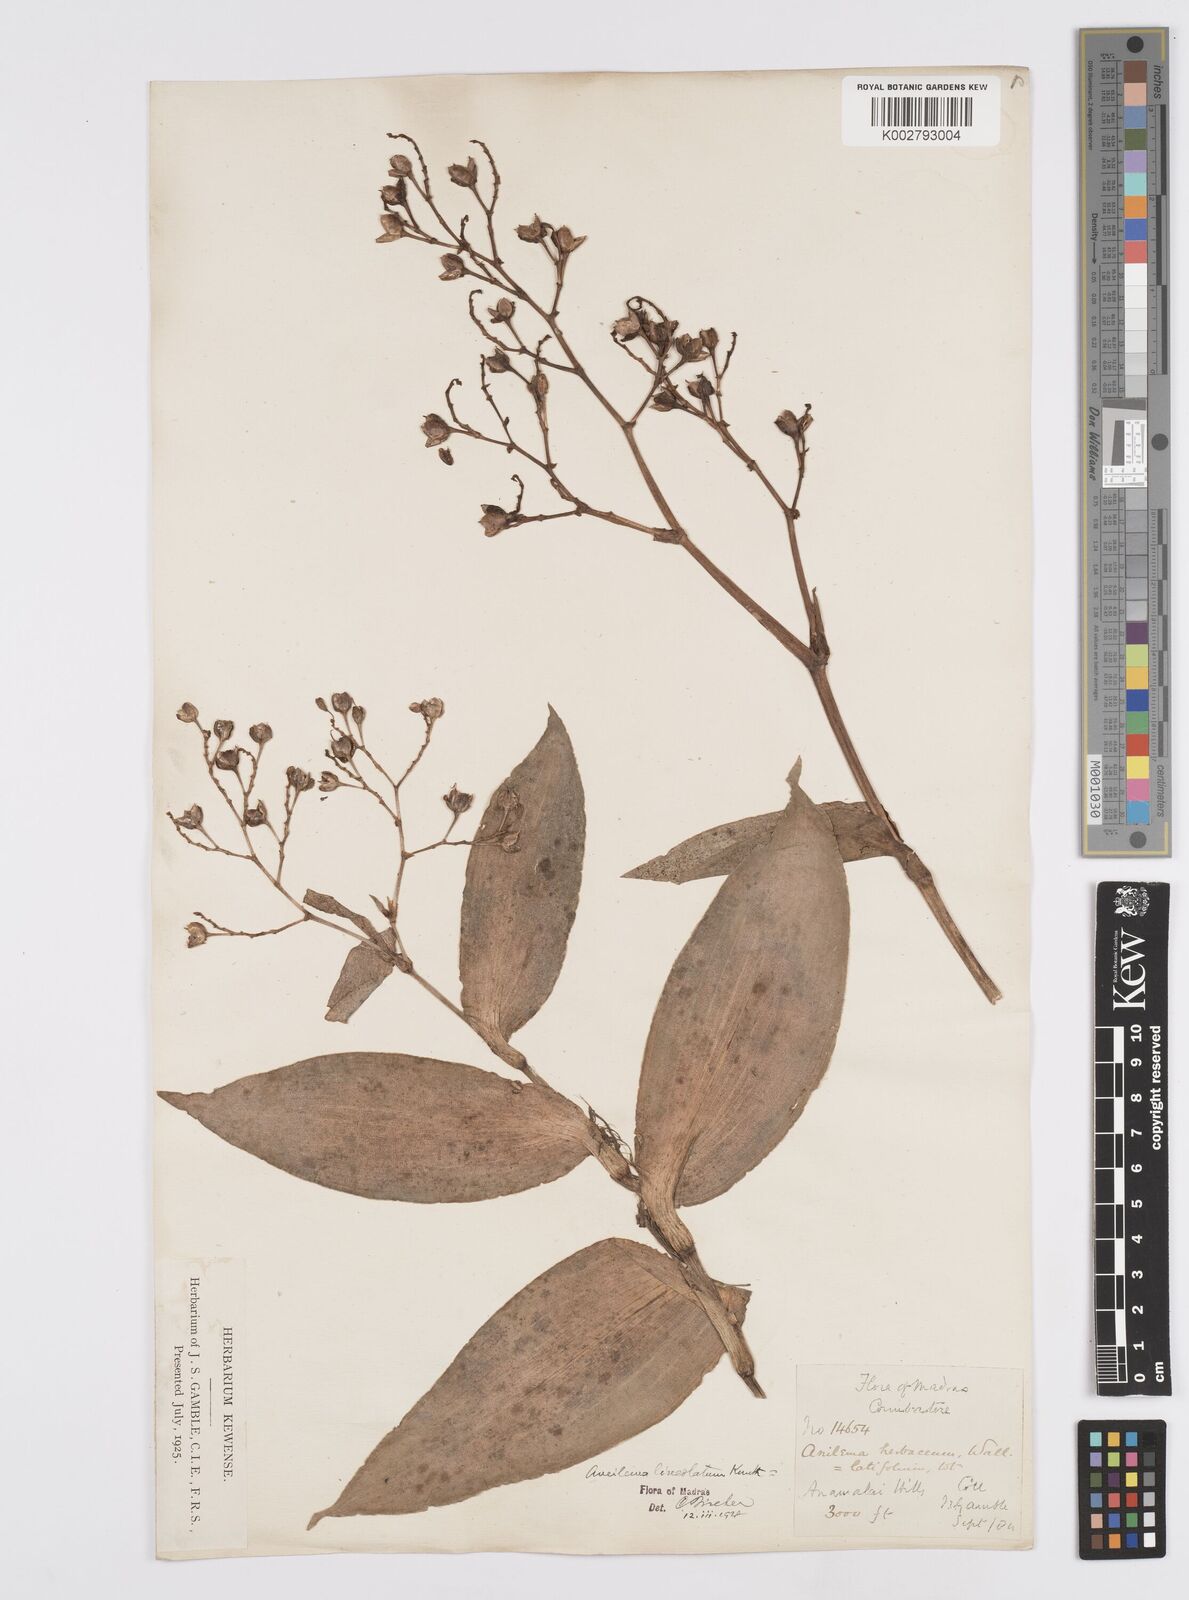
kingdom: Plantae
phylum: Tracheophyta
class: Liliopsida
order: Commelinales
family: Commelinaceae
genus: Murdannia
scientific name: Murdannia
